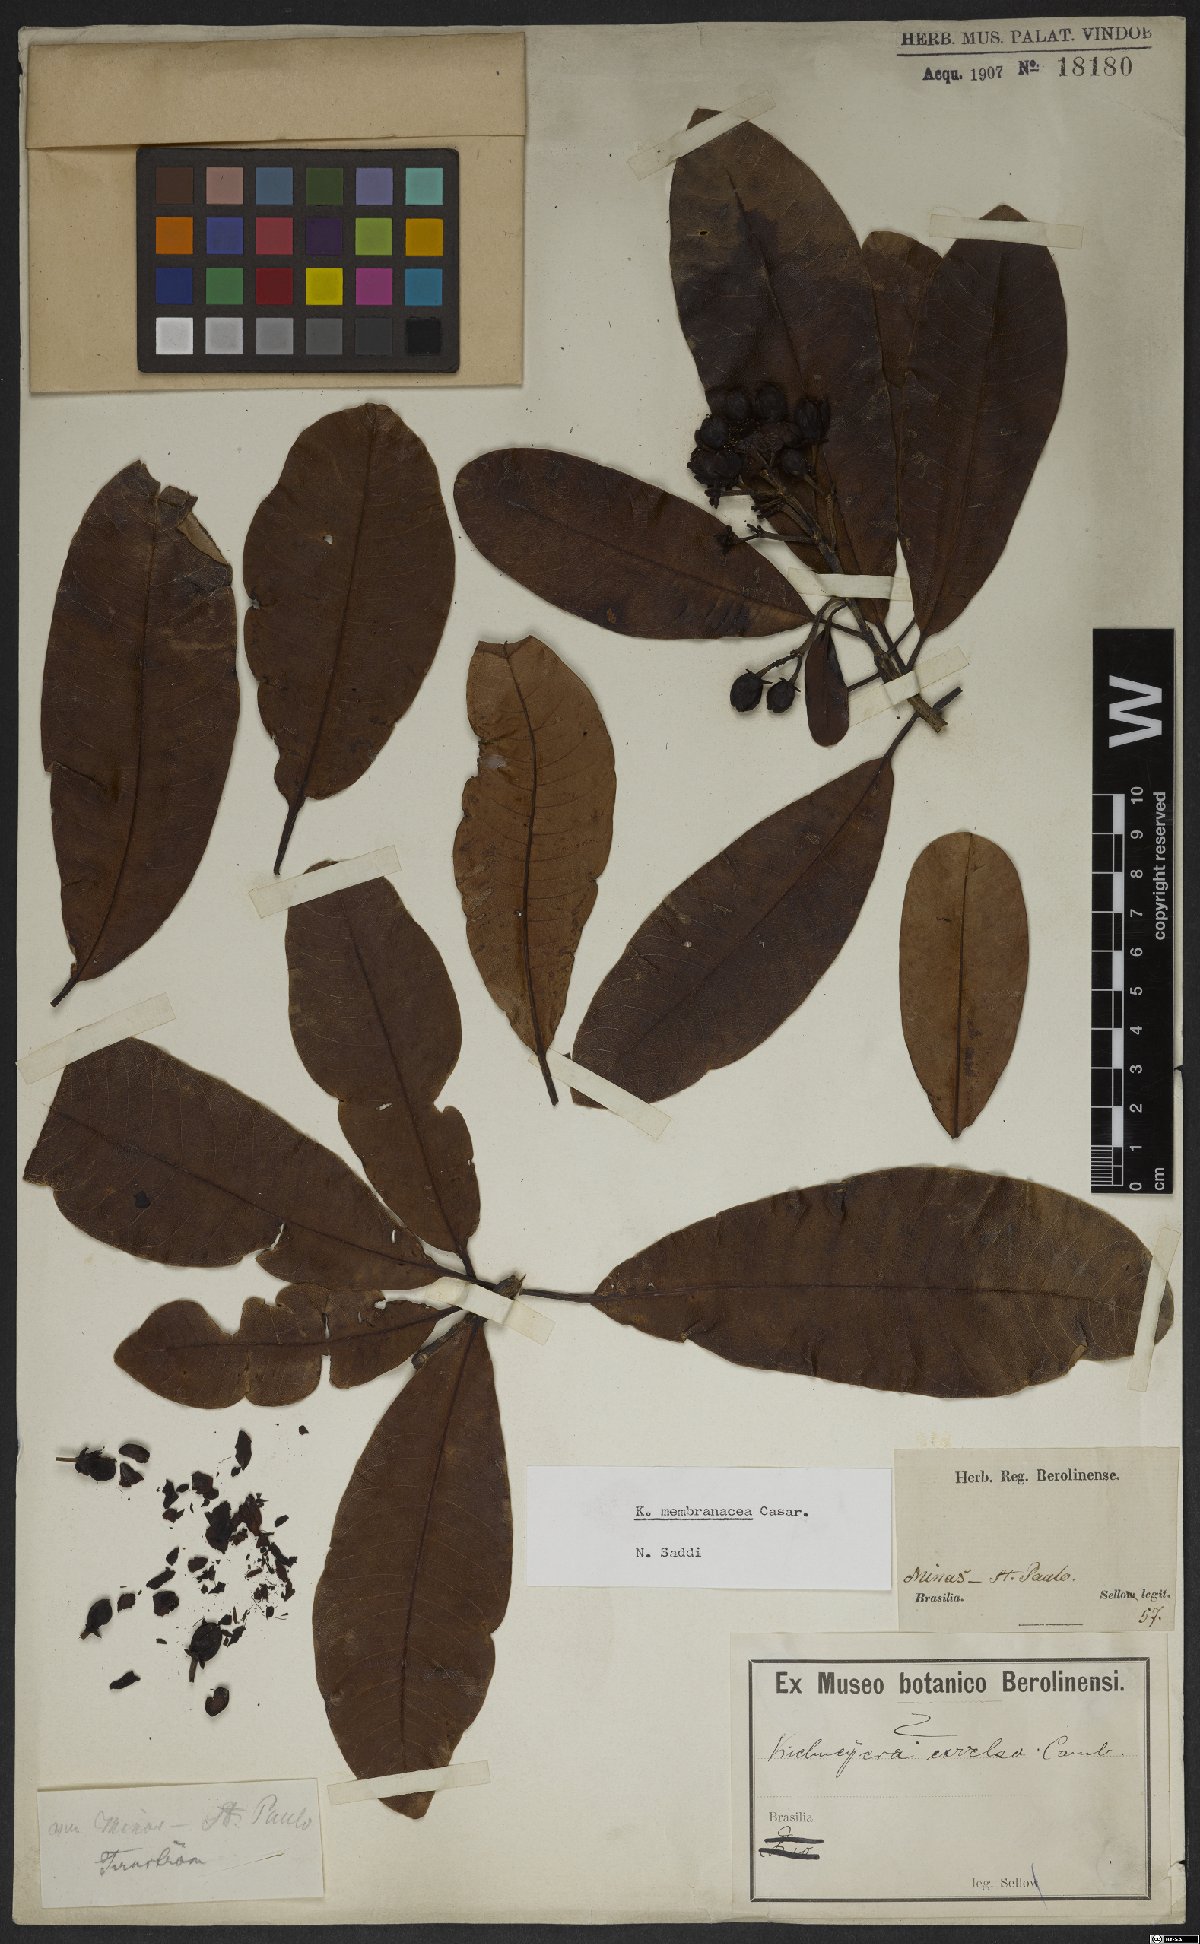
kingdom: Plantae
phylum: Tracheophyta
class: Magnoliopsida
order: Malpighiales
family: Calophyllaceae
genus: Kielmeyera
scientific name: Kielmeyera membranacea
